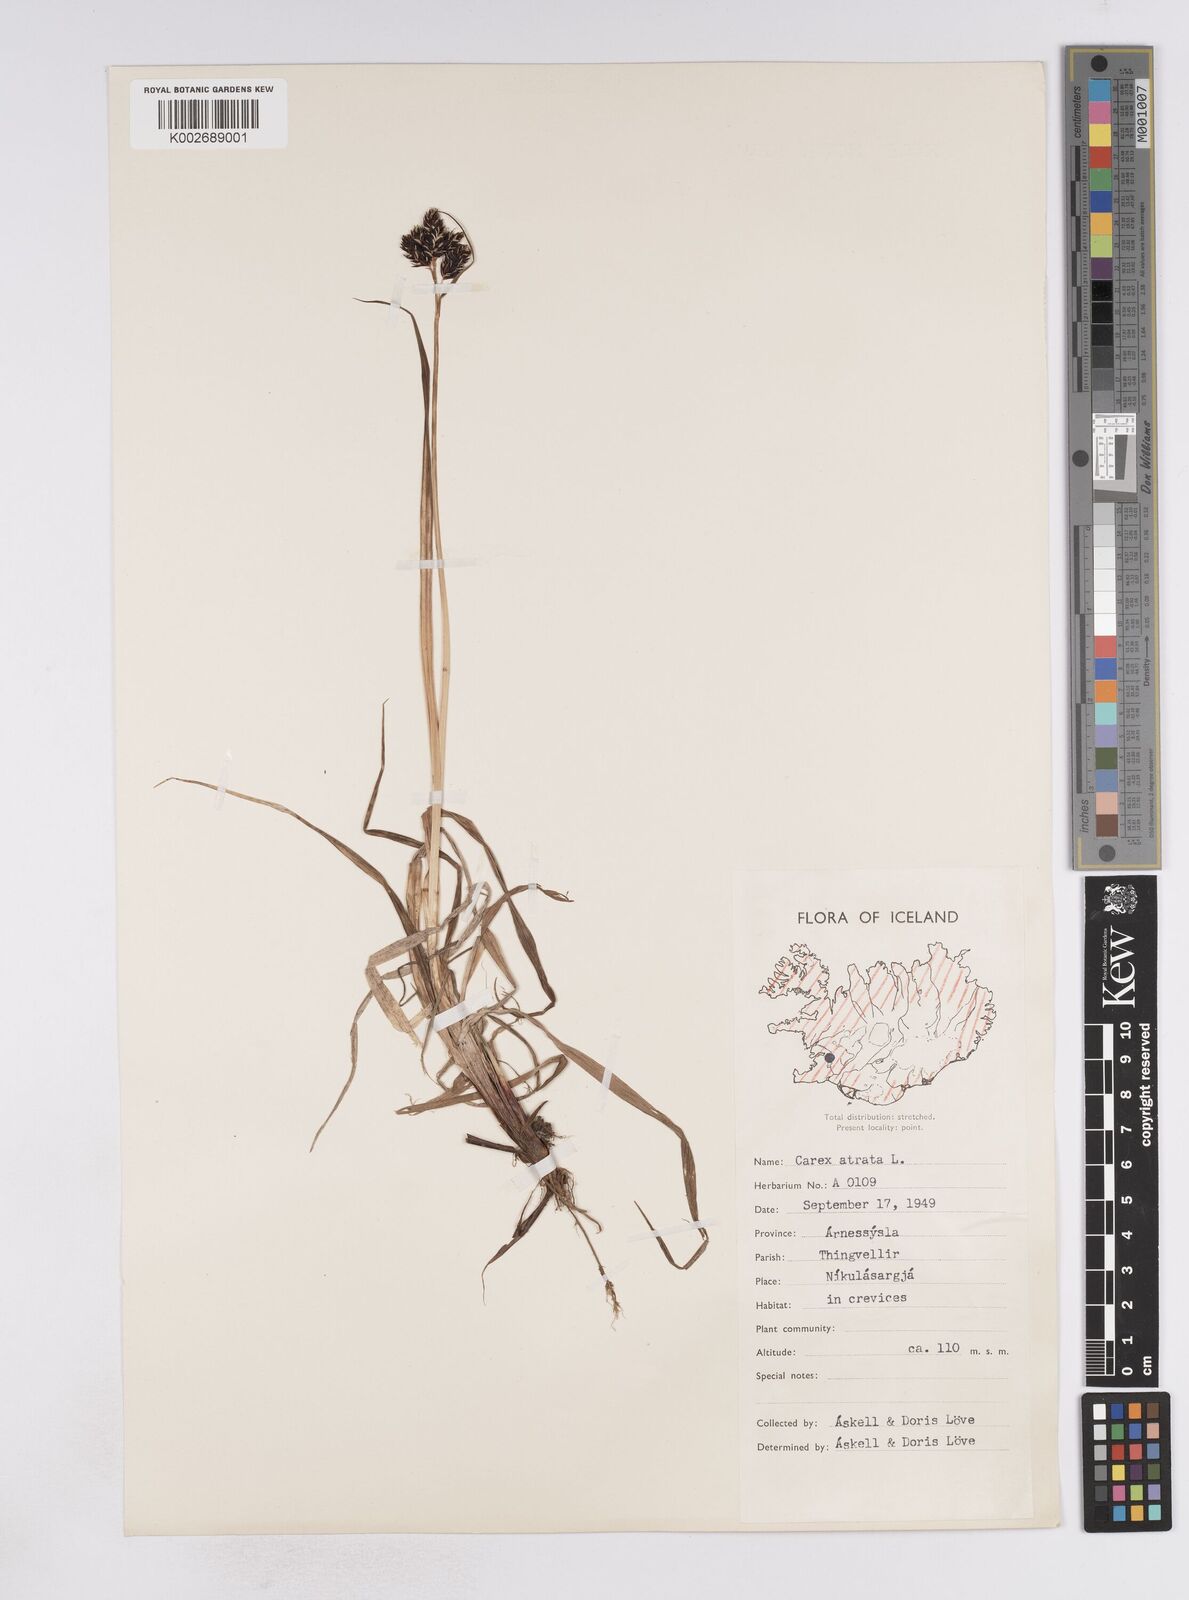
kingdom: Plantae
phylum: Tracheophyta
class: Liliopsida
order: Poales
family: Cyperaceae
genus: Carex
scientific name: Carex atrata
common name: Black alpine sedge
